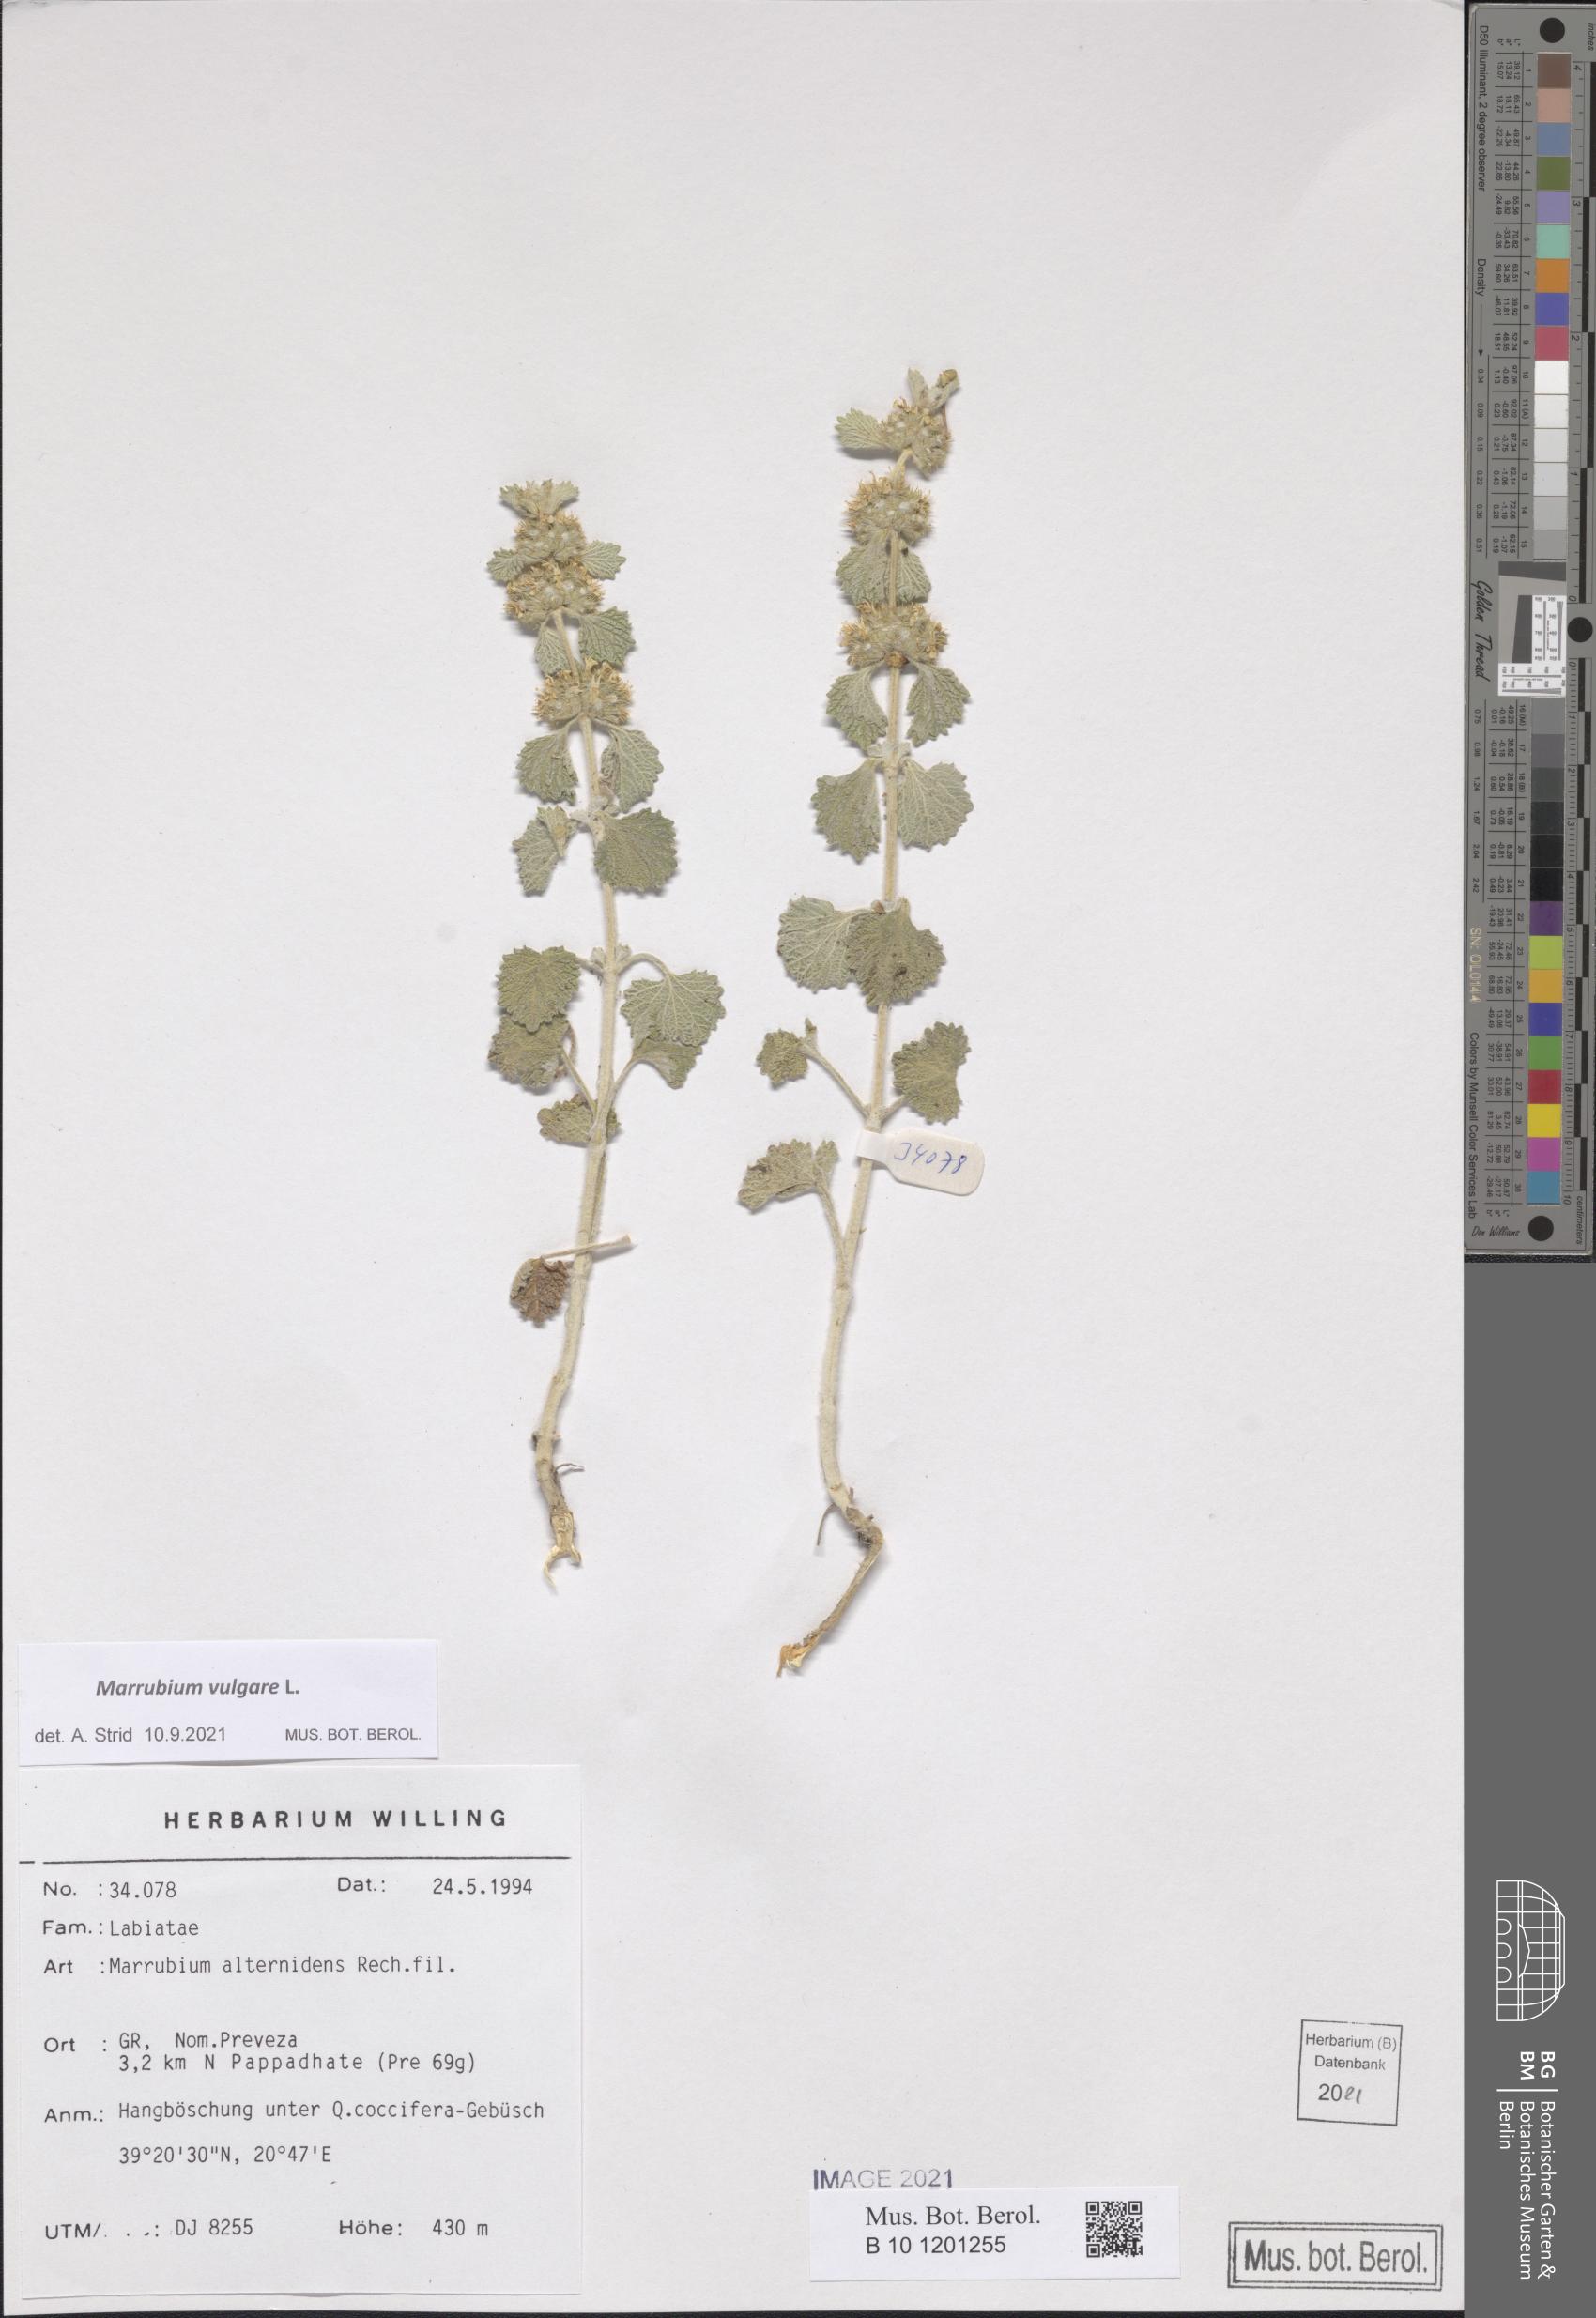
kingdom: Plantae
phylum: Tracheophyta
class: Magnoliopsida
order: Lamiales
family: Lamiaceae
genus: Marrubium
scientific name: Marrubium vulgare
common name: Horehound
